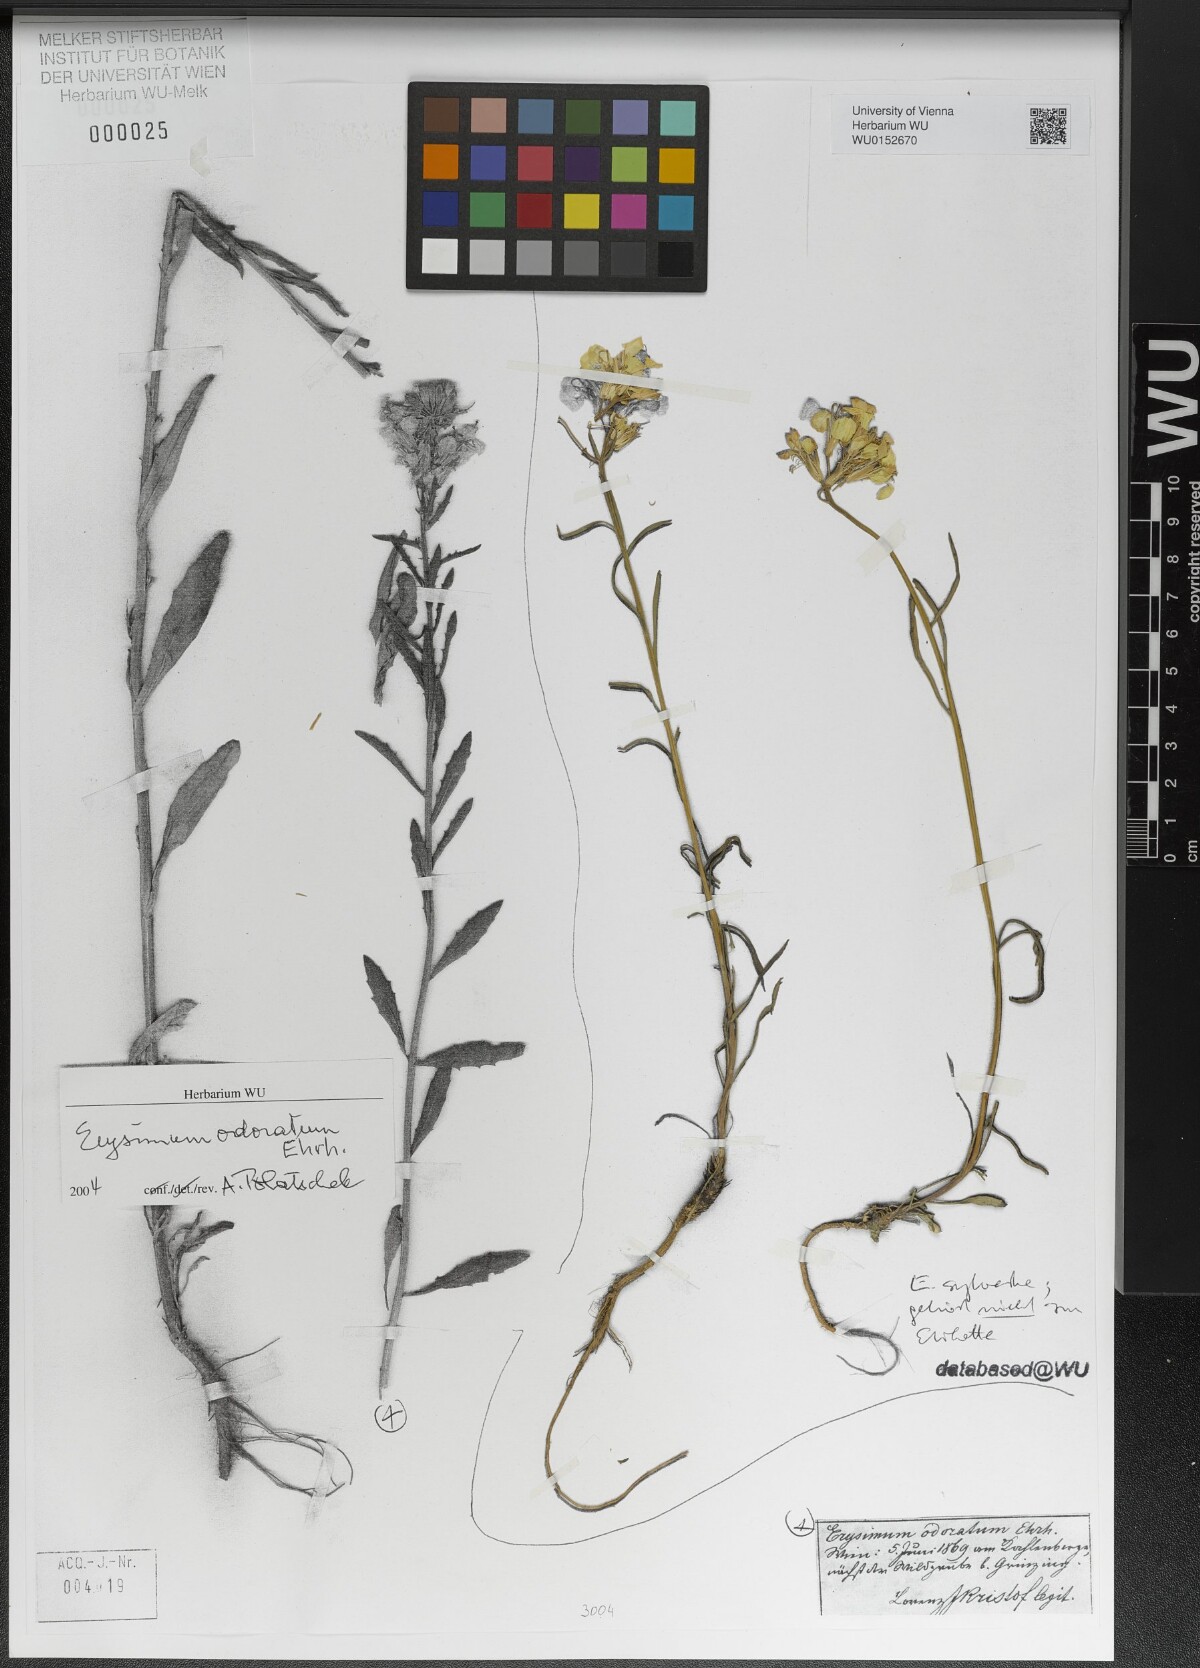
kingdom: Plantae
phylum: Tracheophyta
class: Magnoliopsida
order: Brassicales
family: Brassicaceae
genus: Erysimum
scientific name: Erysimum sylvestre
